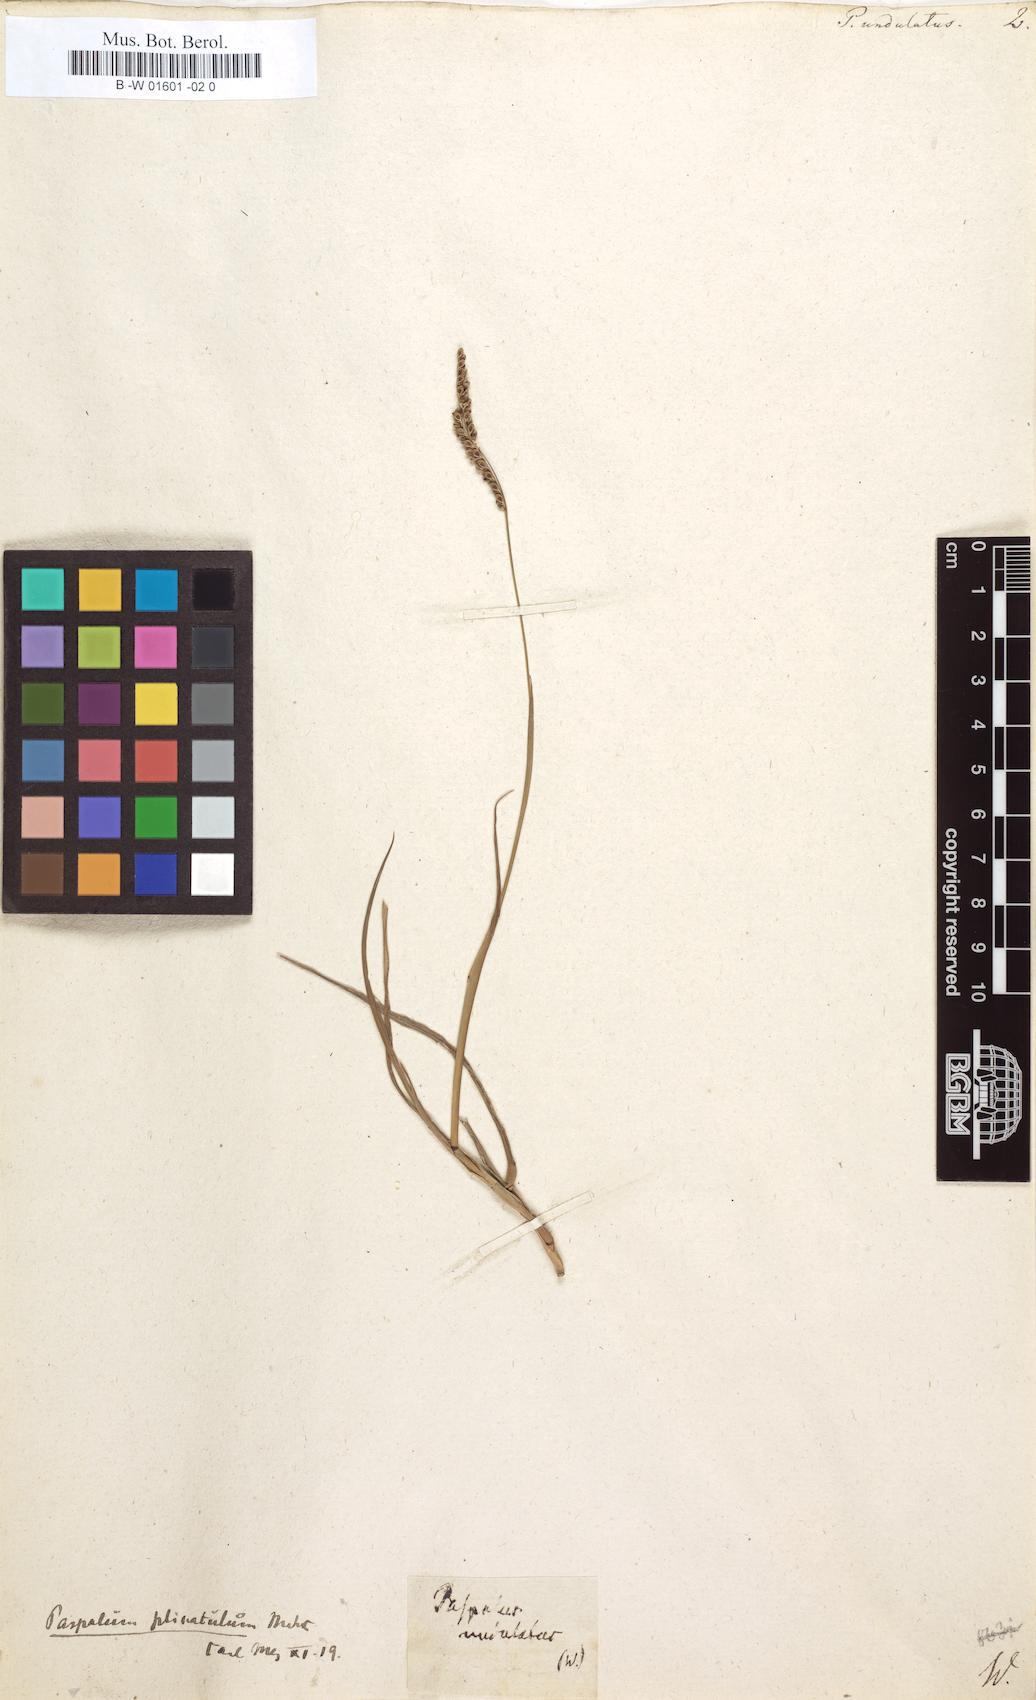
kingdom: Plantae
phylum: Tracheophyta
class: Liliopsida
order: Poales
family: Poaceae
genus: Paspalum
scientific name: Paspalum plicatulum
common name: Top paspalum
